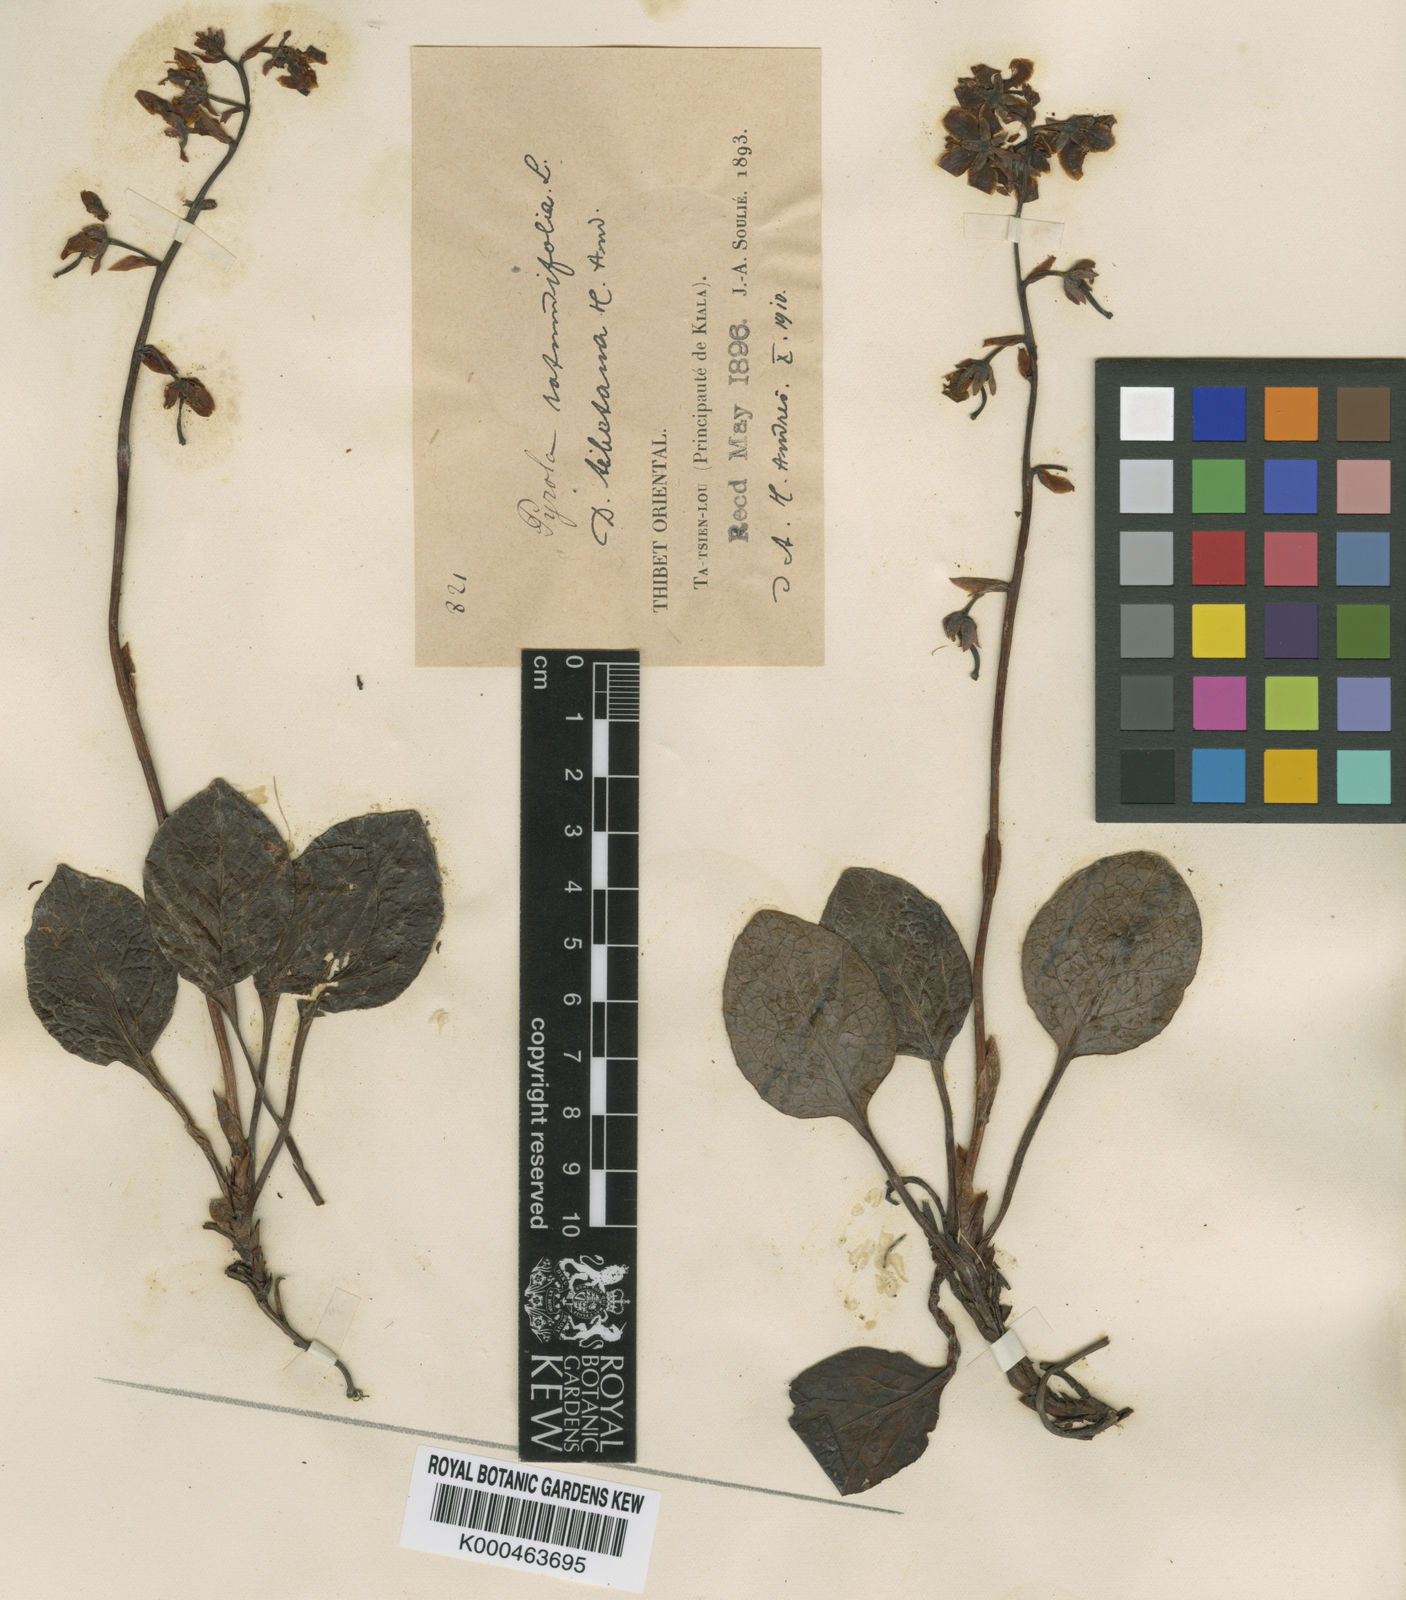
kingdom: Plantae
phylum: Tracheophyta
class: Magnoliopsida
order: Ericales
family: Ericaceae
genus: Pyrola
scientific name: Pyrola rotundifolia
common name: Round-leaved wintergreen
